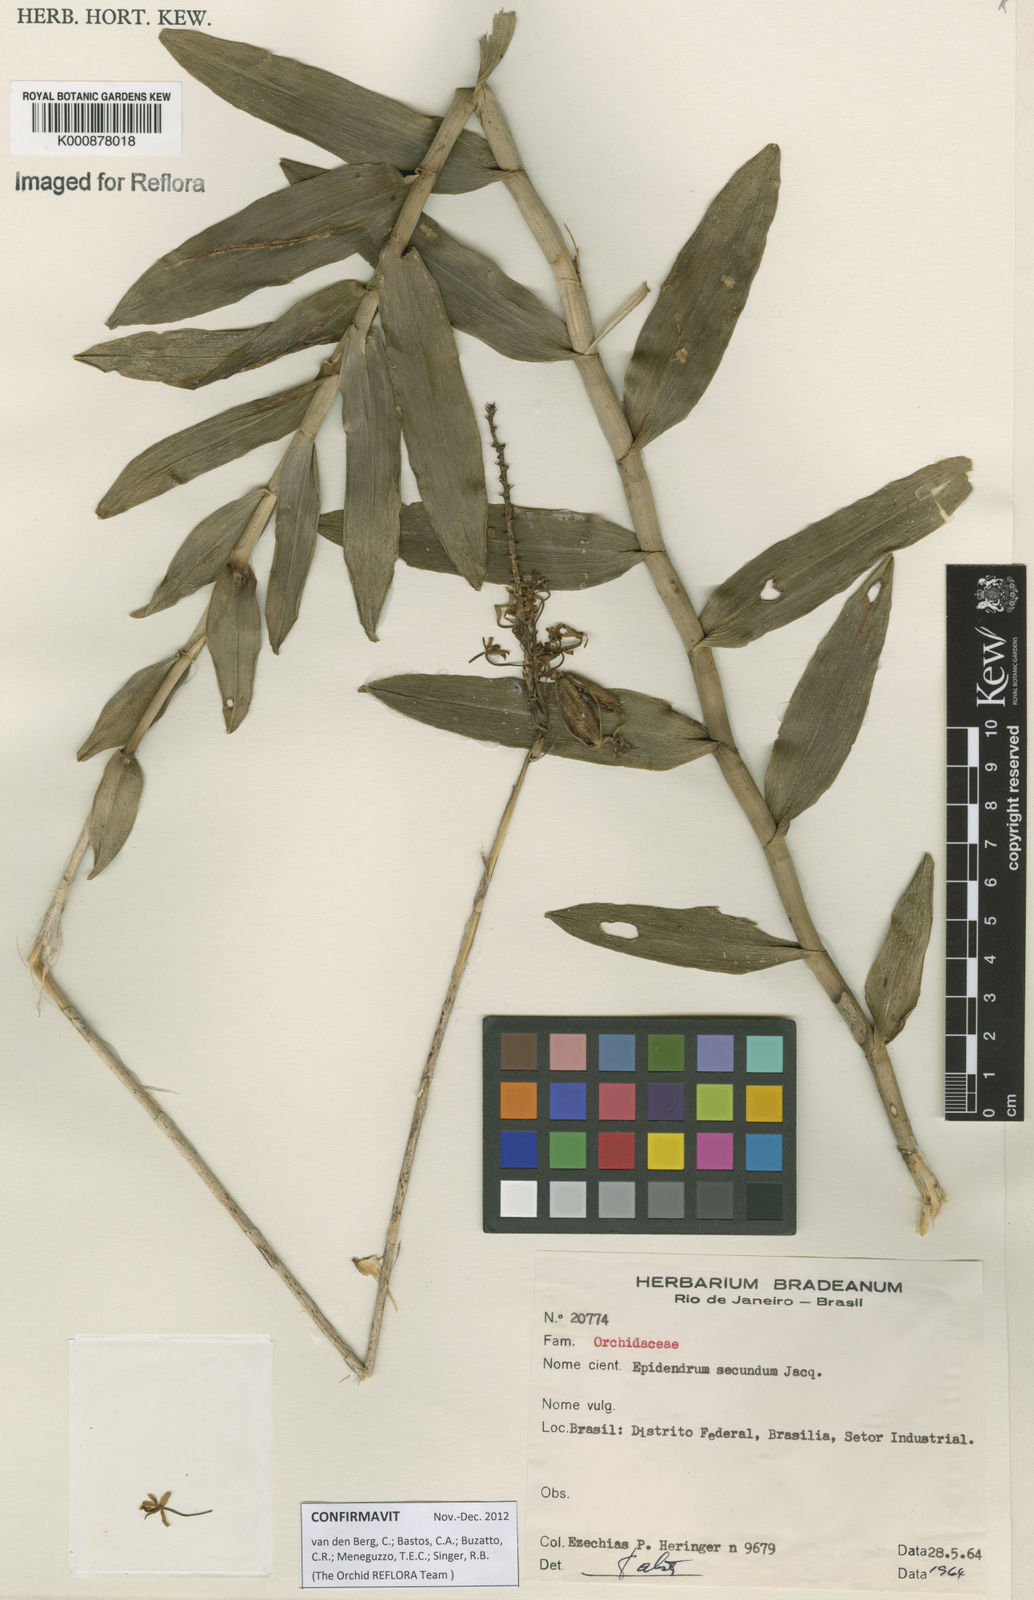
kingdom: Plantae
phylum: Tracheophyta
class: Liliopsida
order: Asparagales
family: Orchidaceae
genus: Epidendrum
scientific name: Epidendrum secundum
